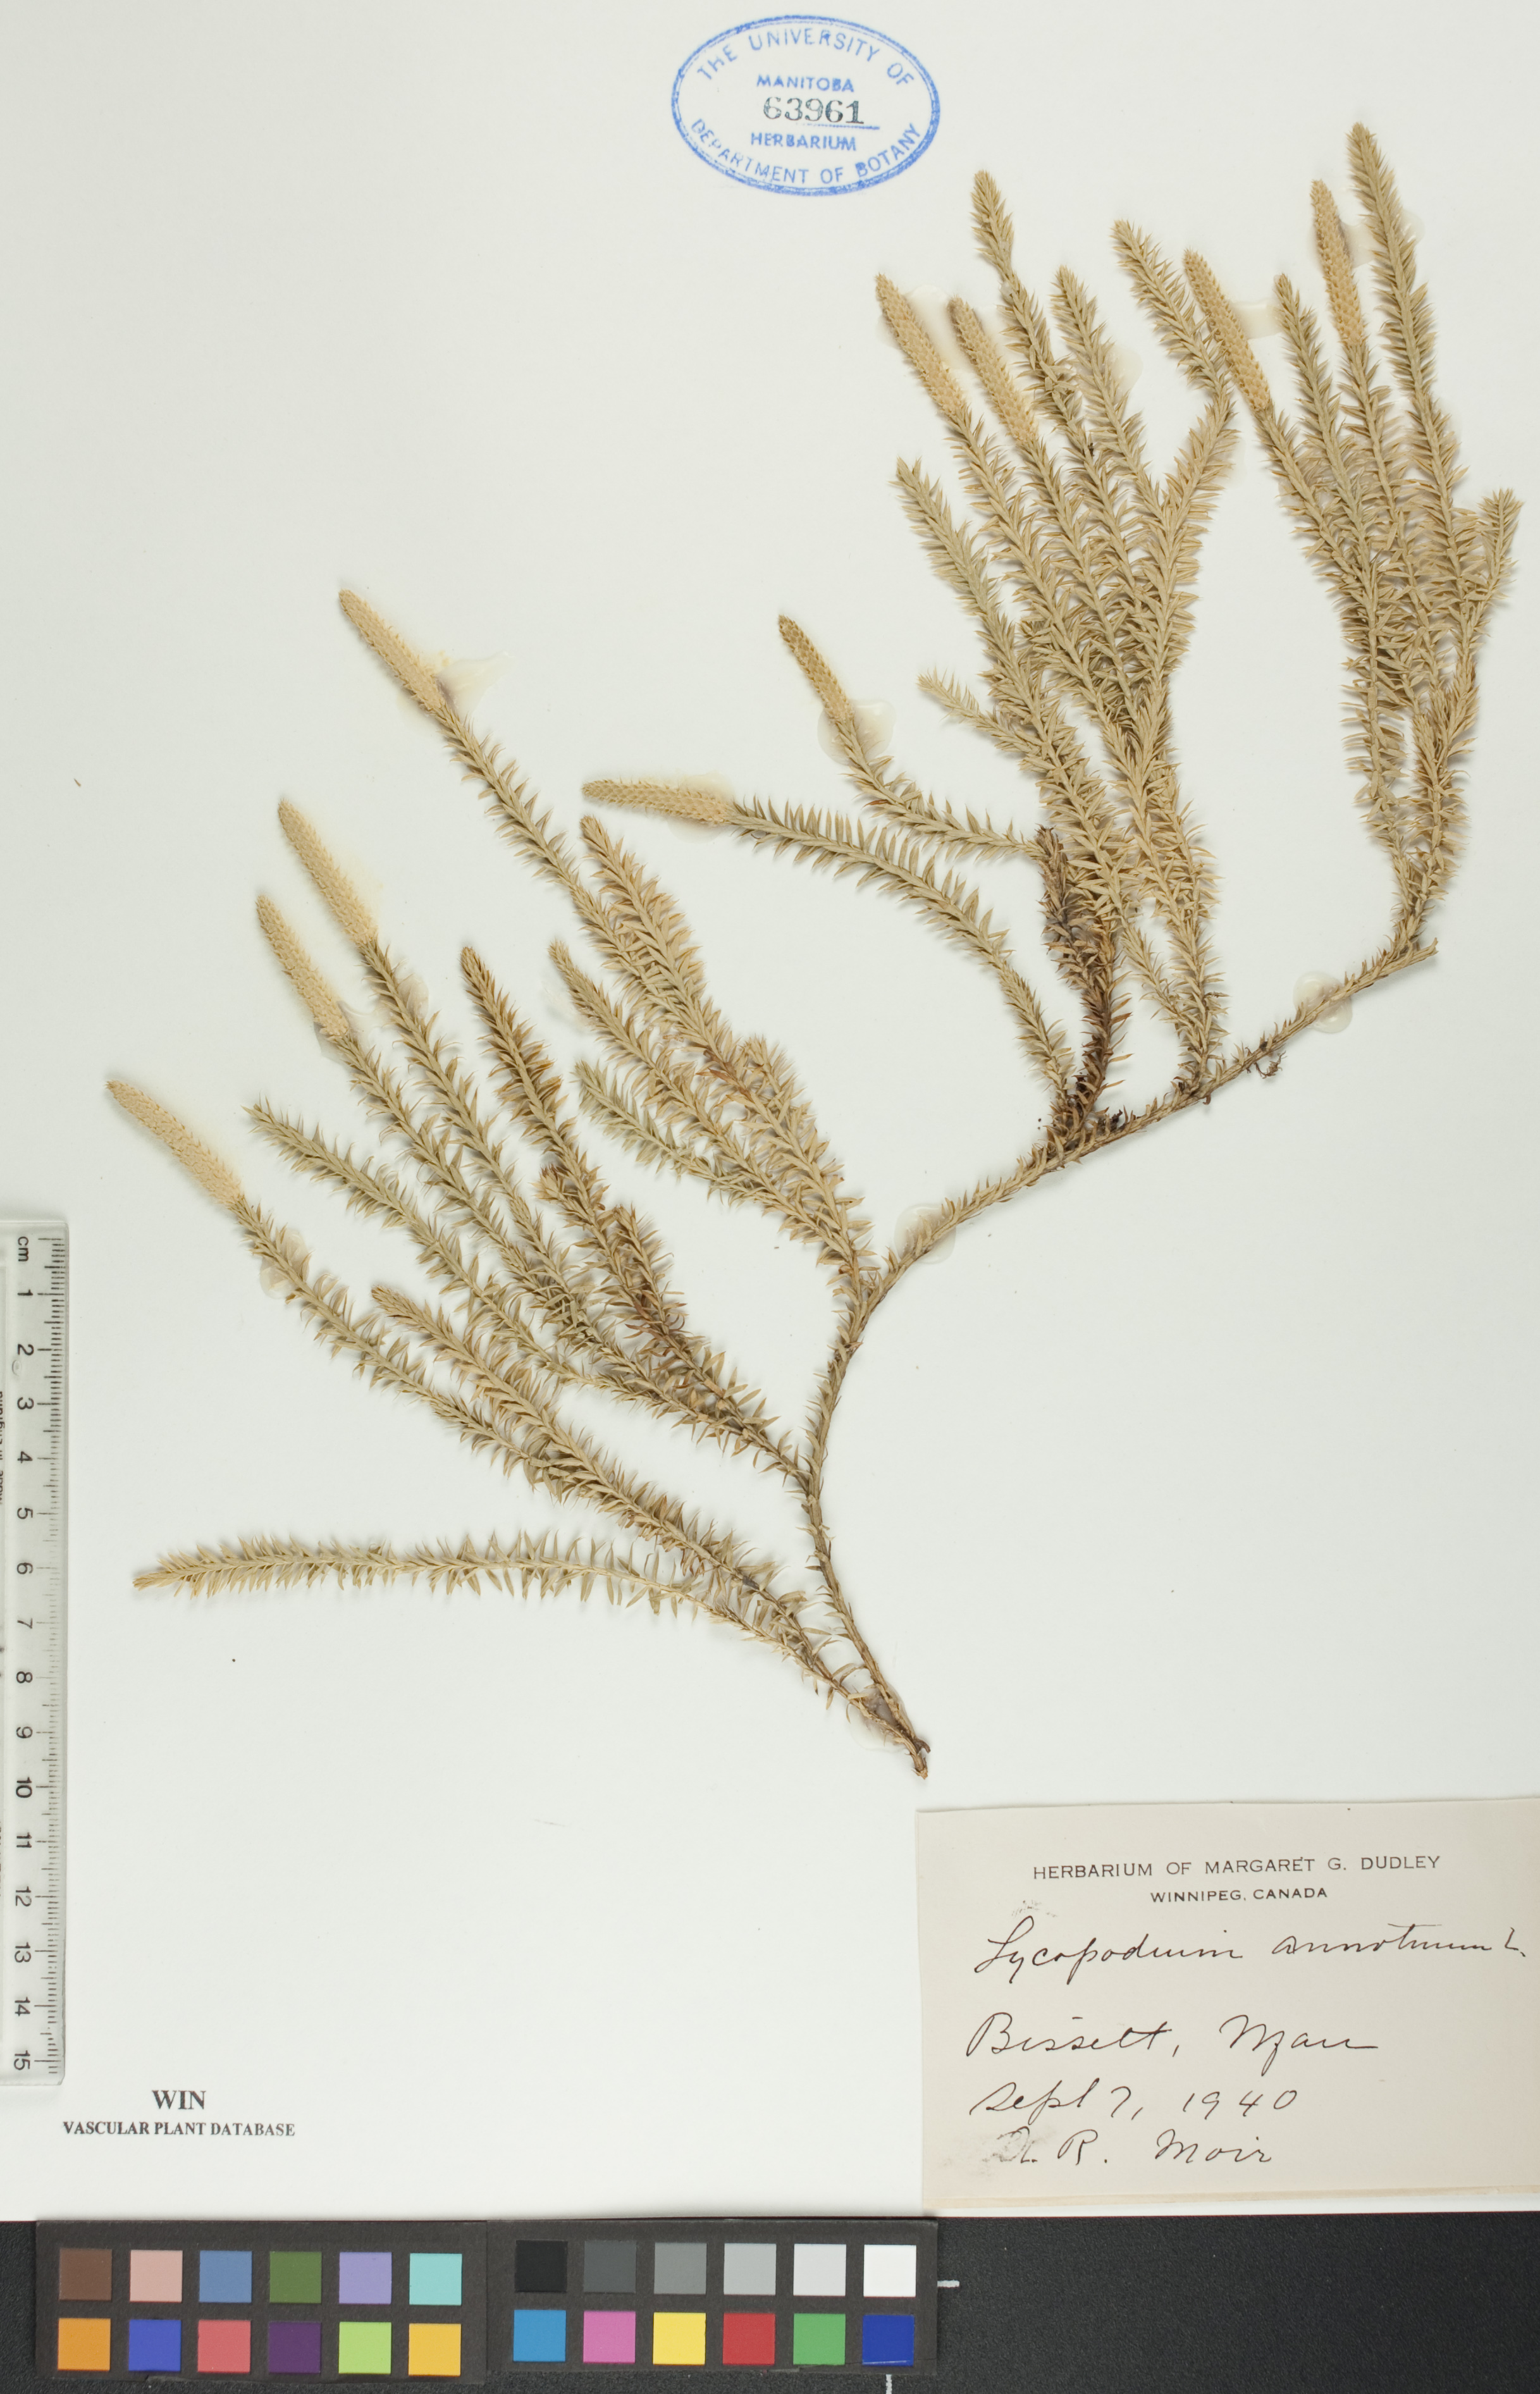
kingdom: Plantae
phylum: Tracheophyta
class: Lycopodiopsida
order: Lycopodiales
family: Lycopodiaceae
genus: Spinulum
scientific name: Spinulum annotinum
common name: Interrupted club-moss
